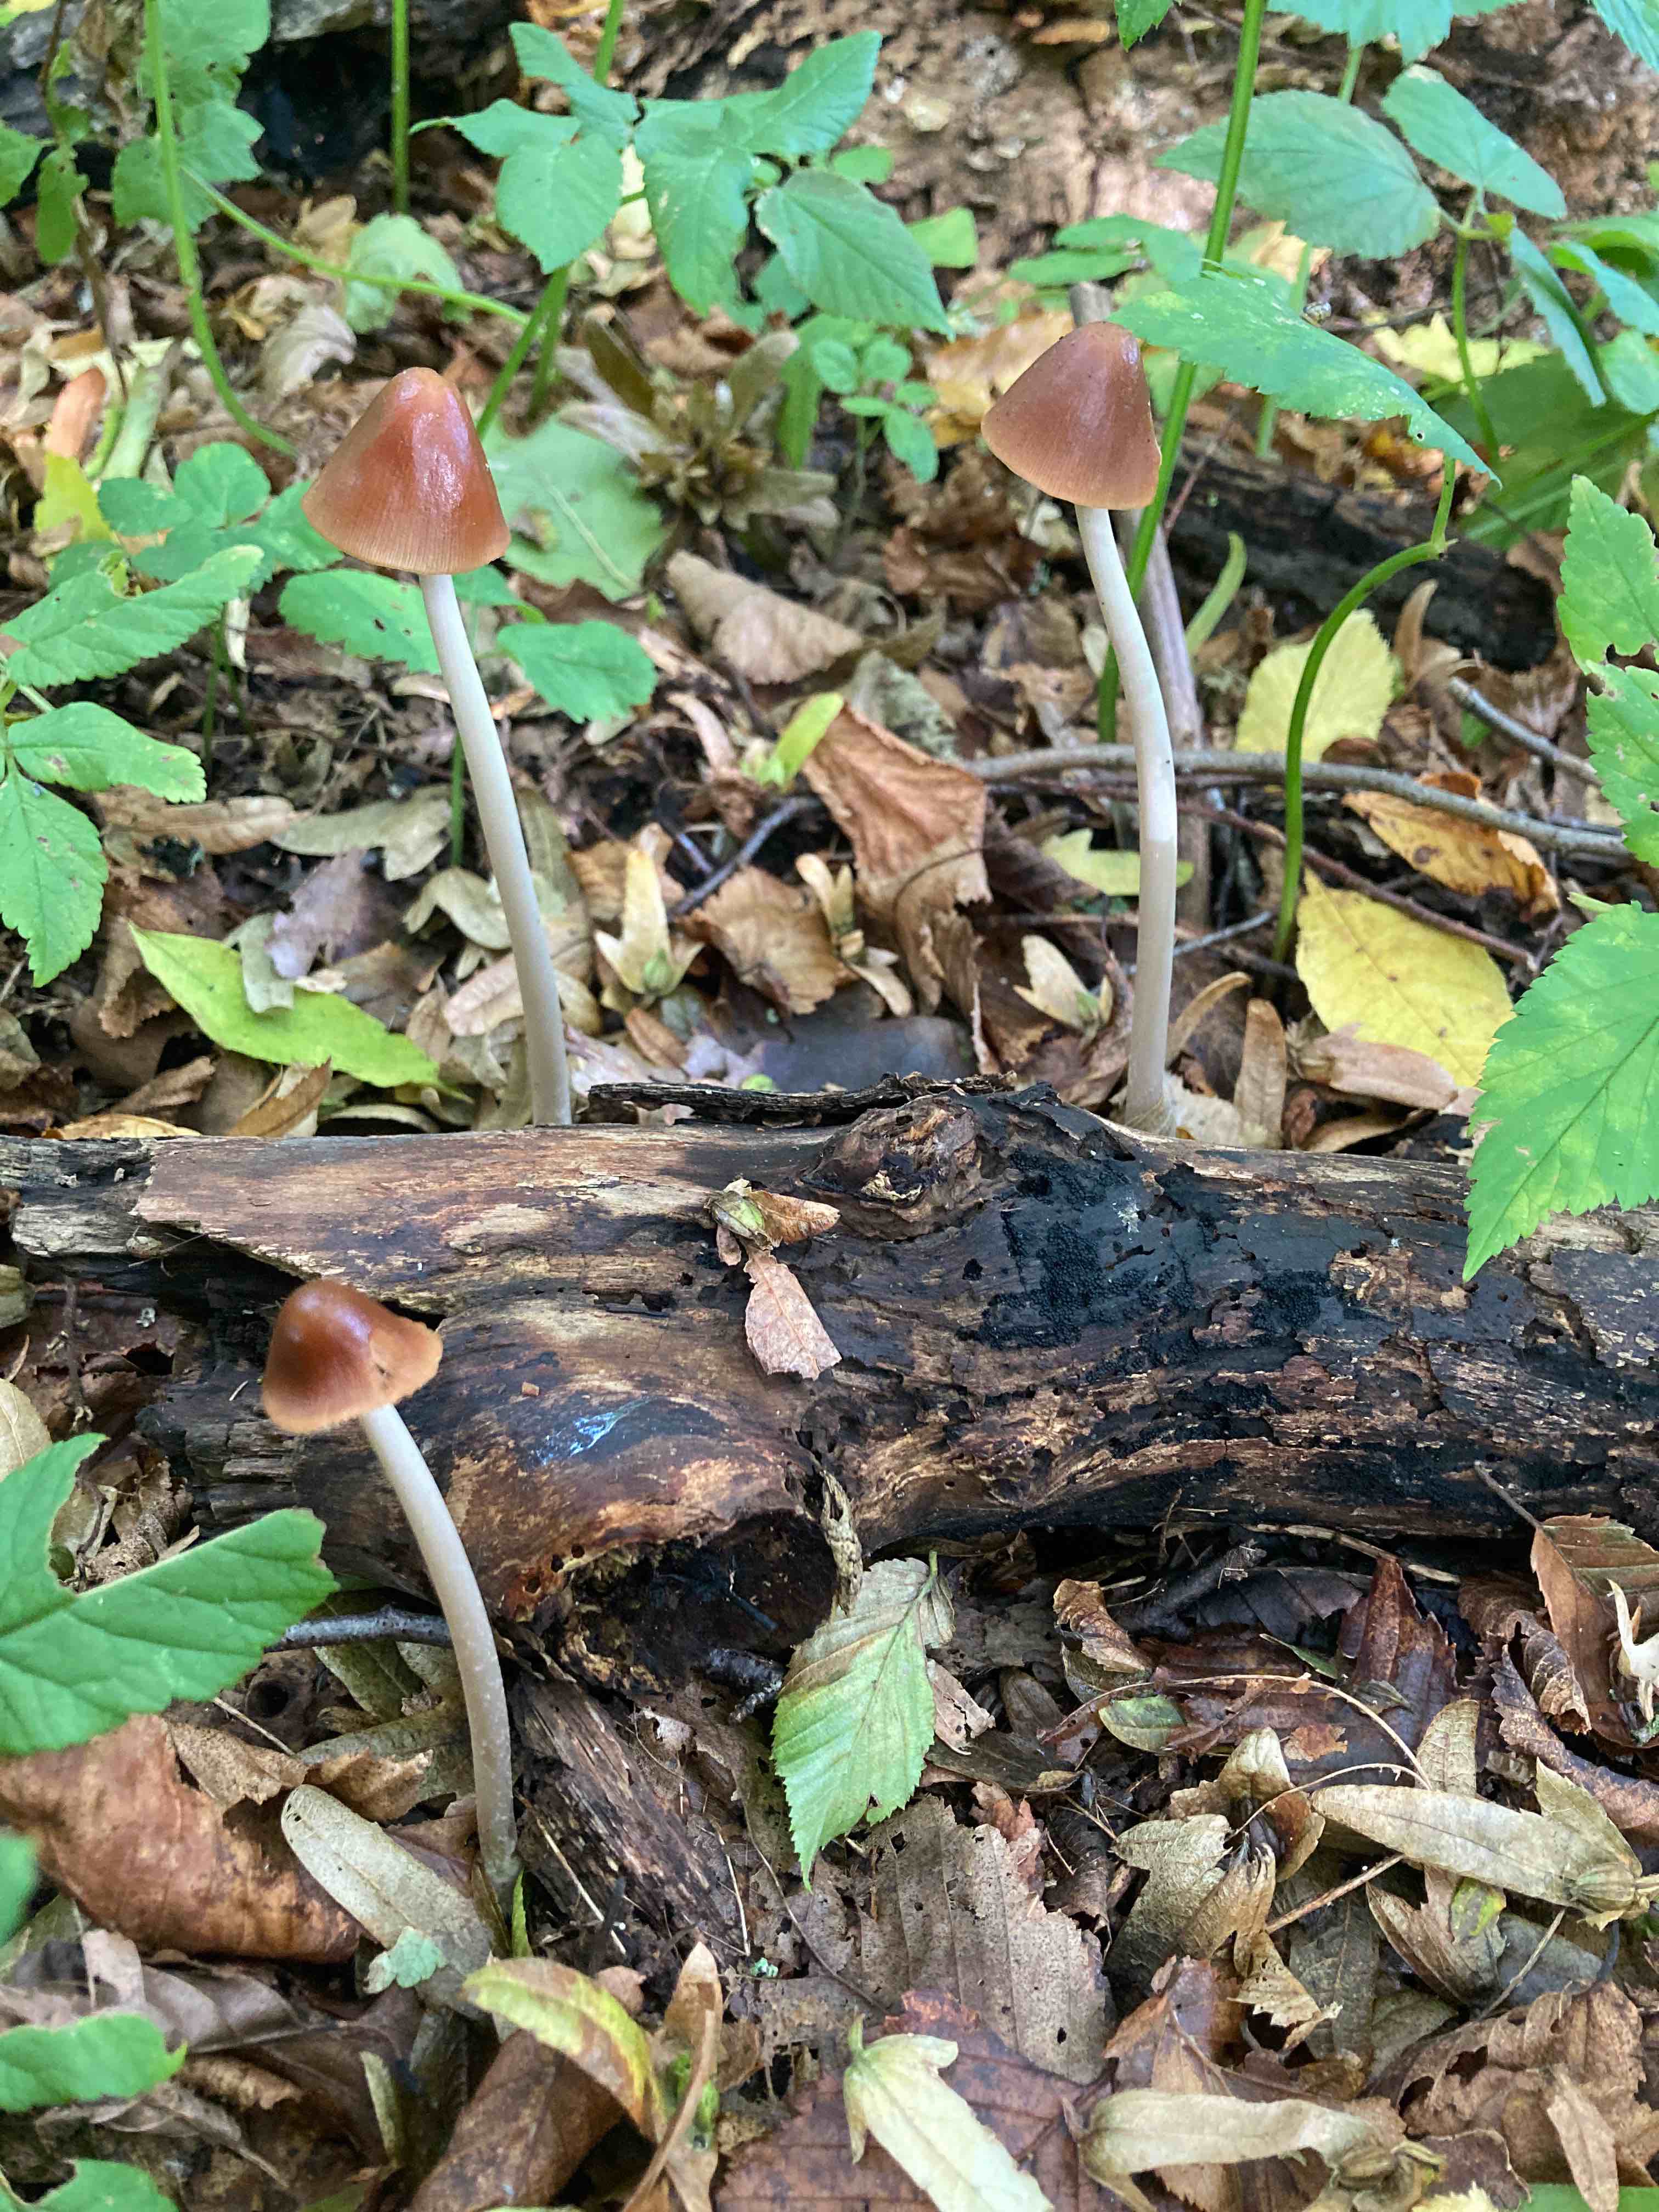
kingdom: Fungi
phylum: Basidiomycota
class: Agaricomycetes
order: Agaricales
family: Psathyrellaceae
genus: Parasola
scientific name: Parasola conopilea
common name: kegle-hjulhat
